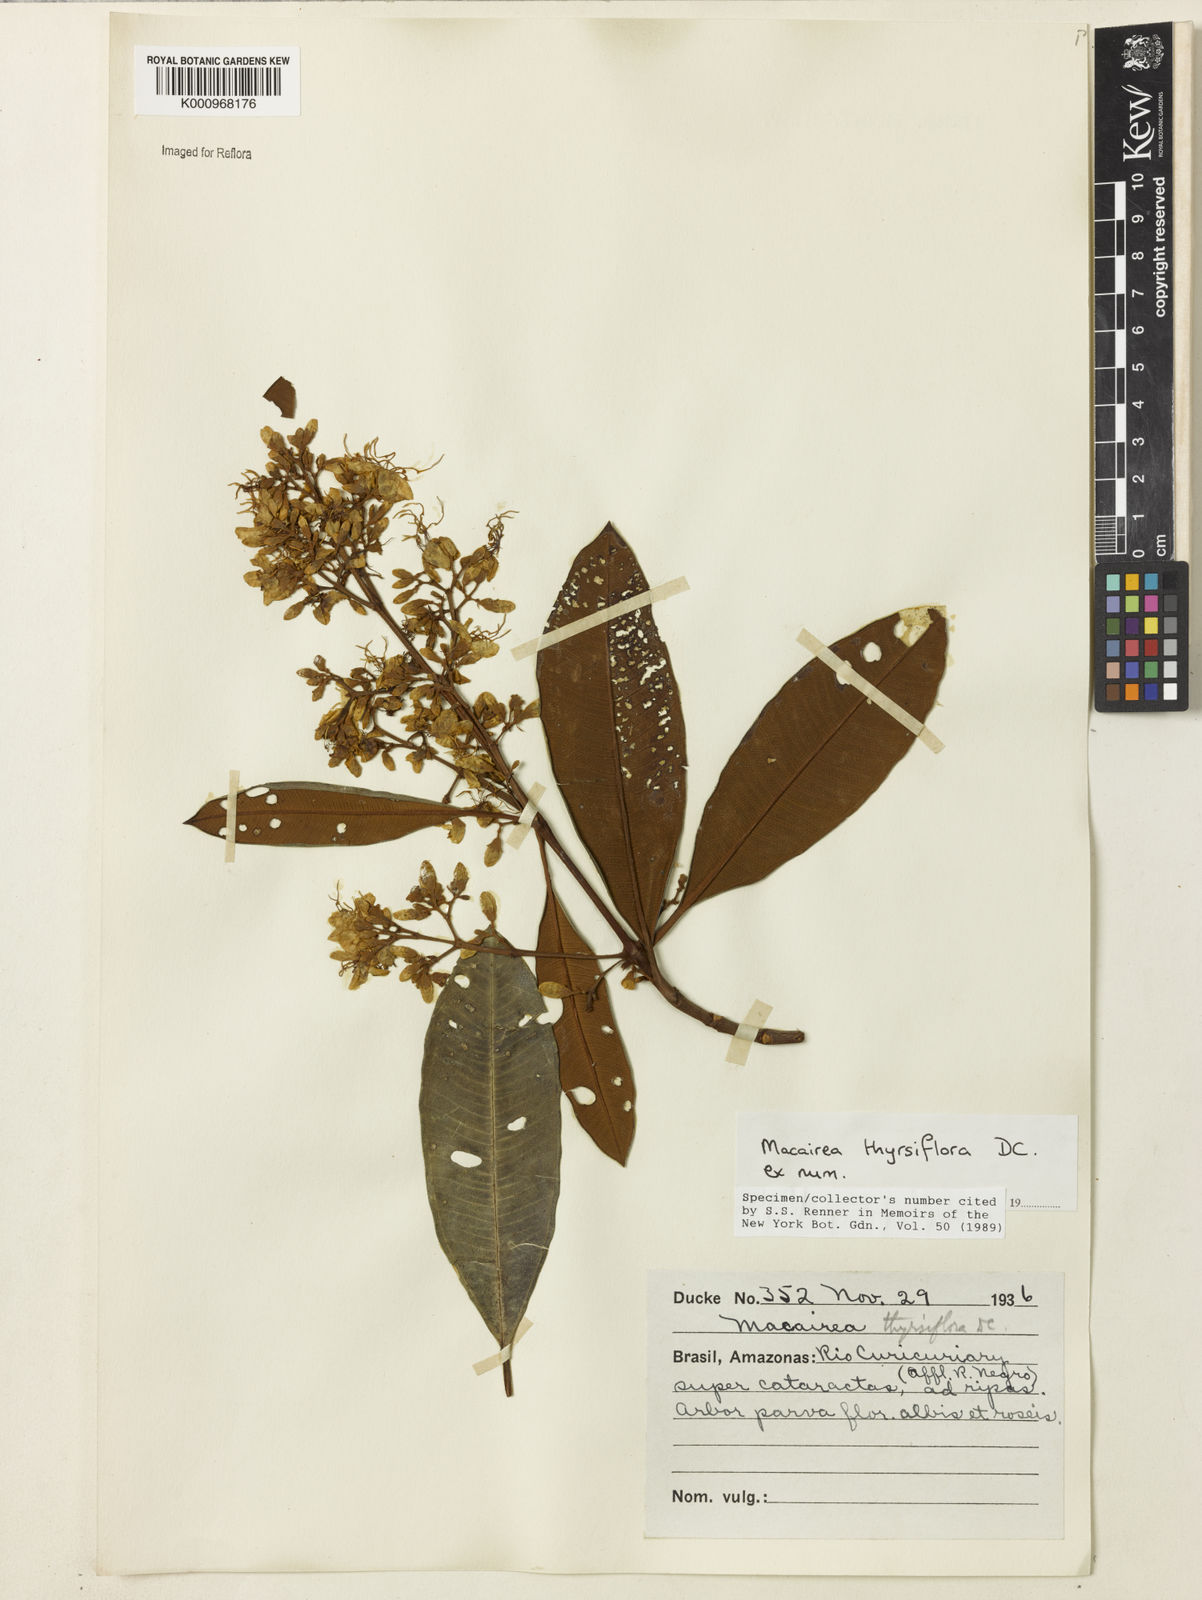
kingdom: Plantae
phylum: Tracheophyta
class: Magnoliopsida
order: Myrtales
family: Melastomataceae
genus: Macairea
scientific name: Macairea thyrsiflora
